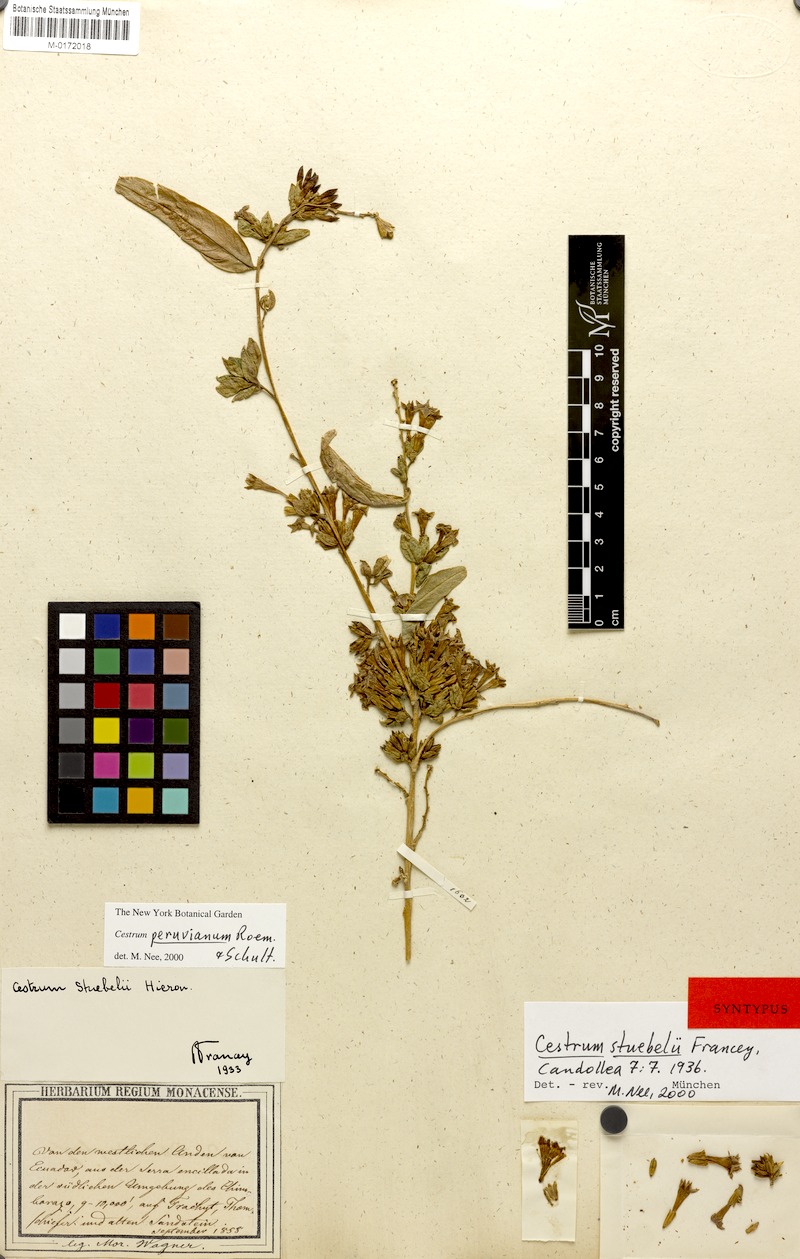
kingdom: Plantae
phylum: Tracheophyta
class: Magnoliopsida
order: Solanales
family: Solanaceae
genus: Cestrum
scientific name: Cestrum peruvianum
